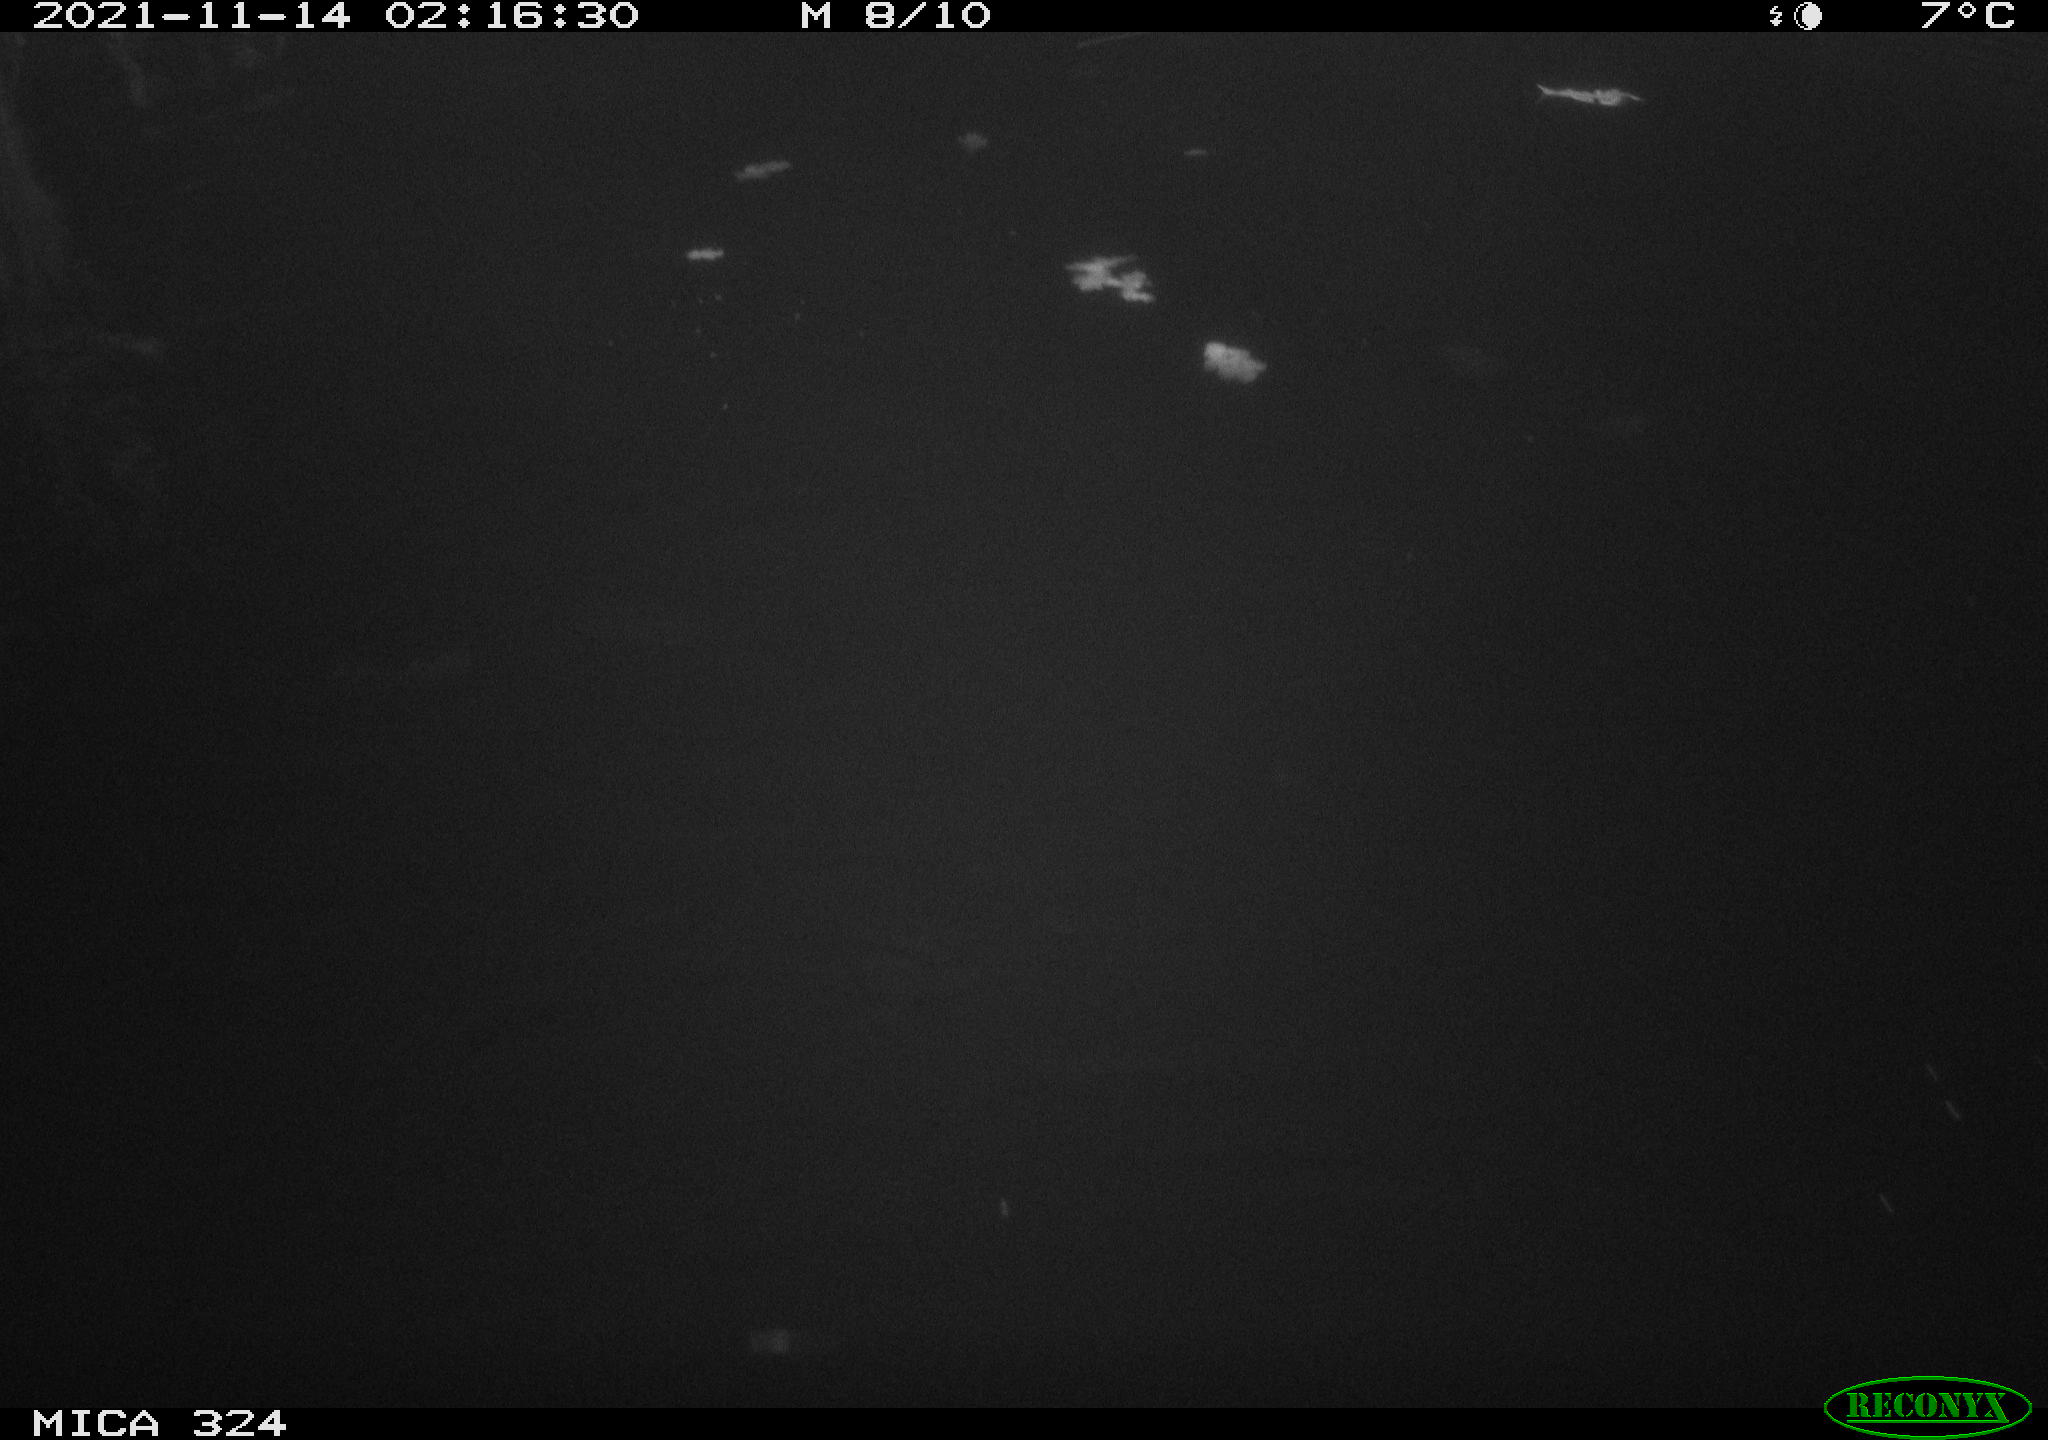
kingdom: Animalia
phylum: Chordata
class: Mammalia
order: Rodentia
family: Cricetidae
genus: Ondatra
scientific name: Ondatra zibethicus
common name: Muskrat
